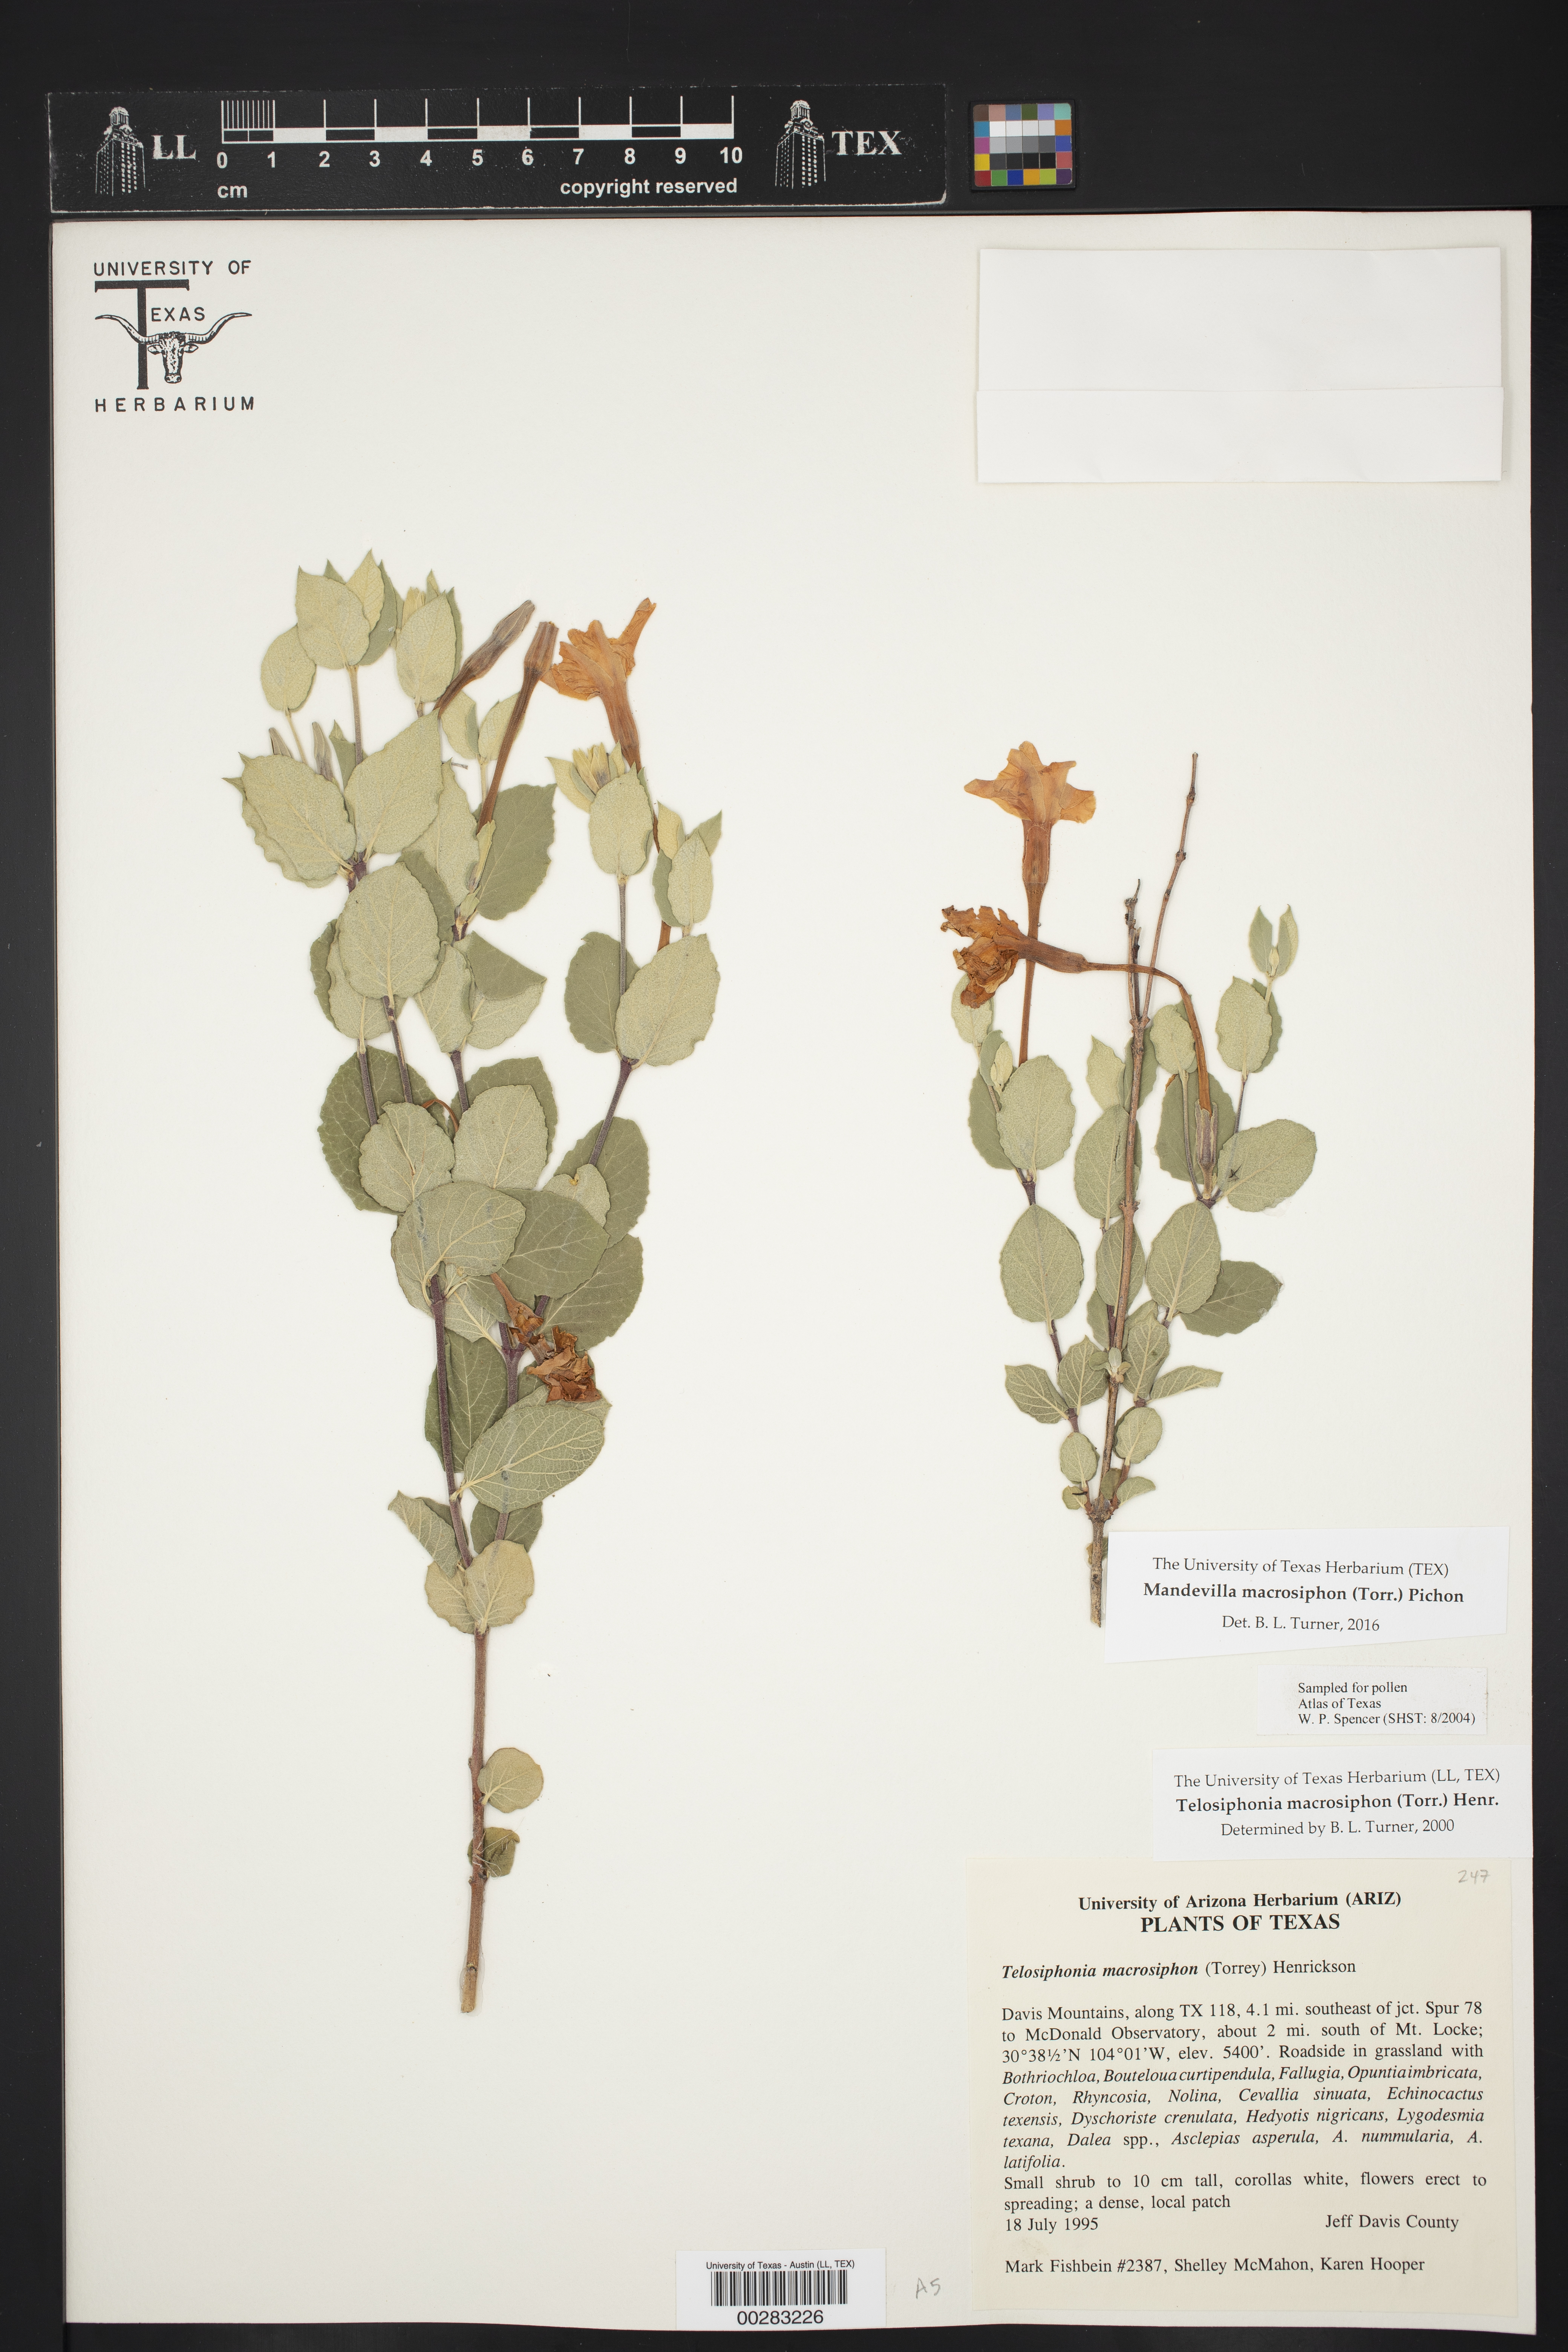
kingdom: Plantae
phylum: Tracheophyta
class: Magnoliopsida
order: Gentianales
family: Apocynaceae
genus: Mandevilla
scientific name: Mandevilla macrosiphon
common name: Plateau rocktrumpet
